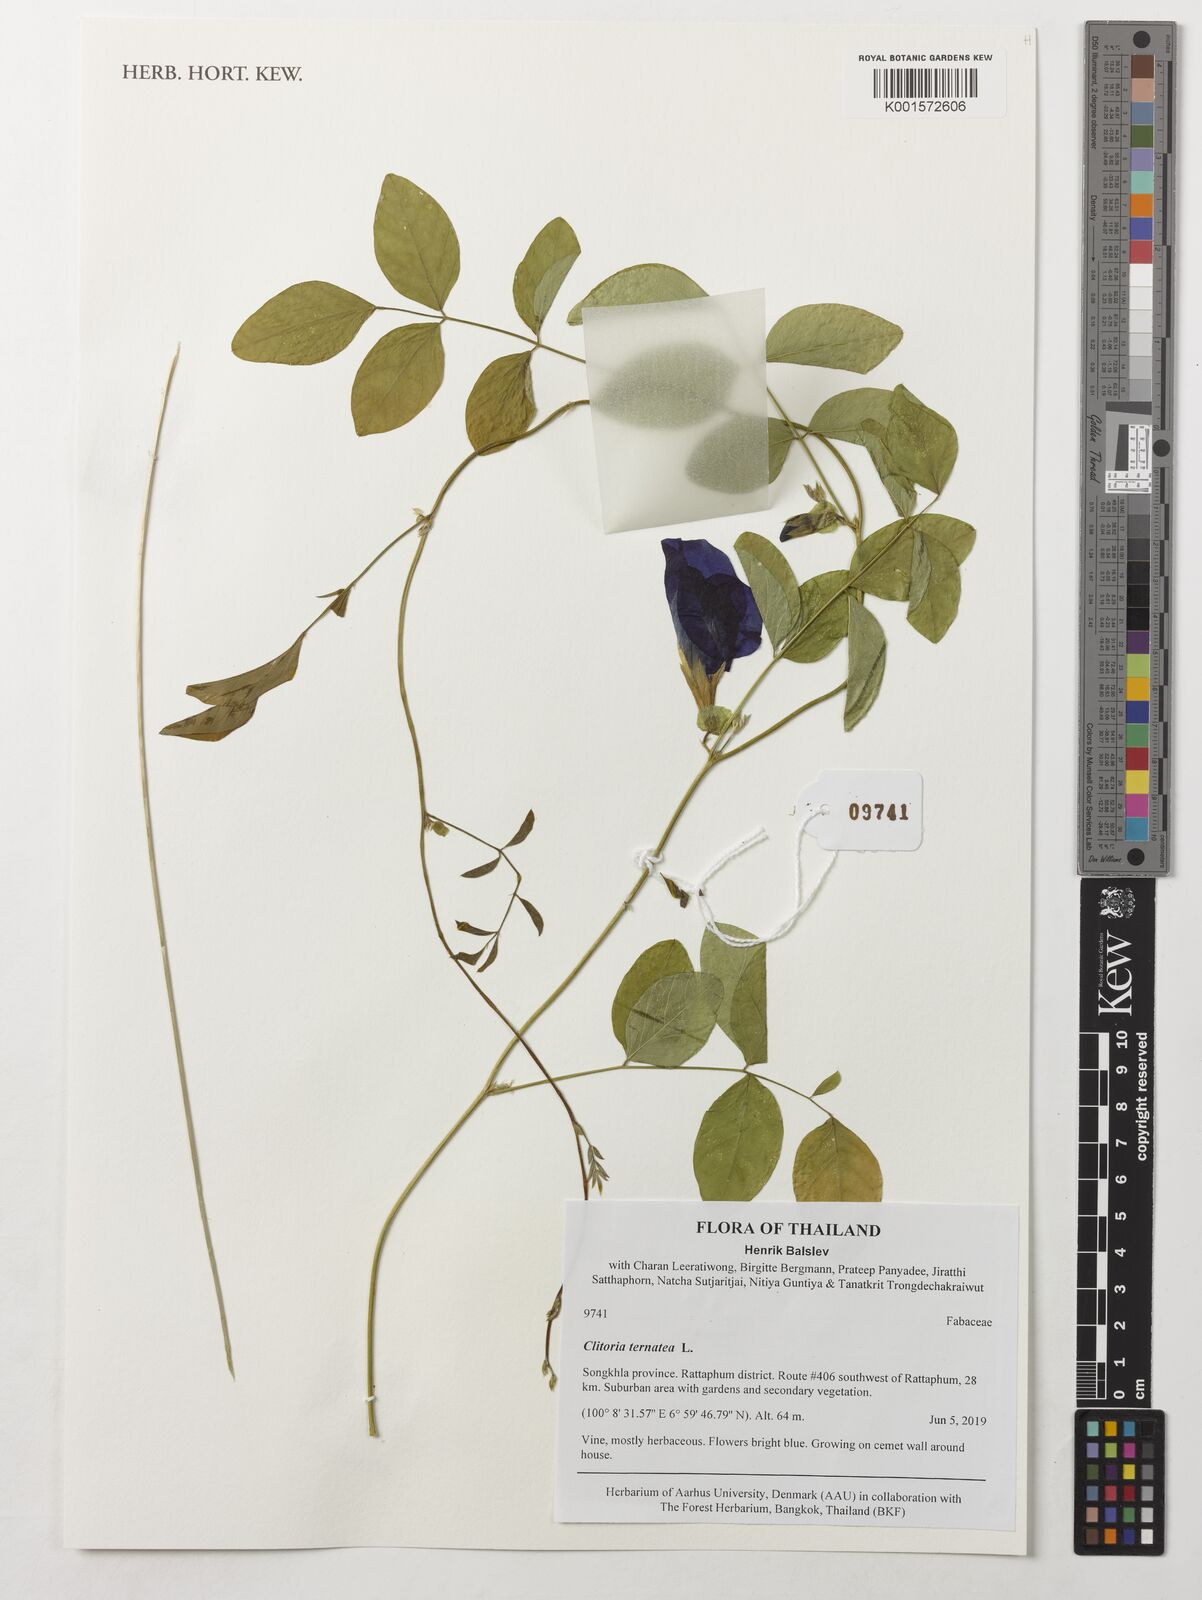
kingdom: Plantae
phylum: Tracheophyta
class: Magnoliopsida
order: Fabales
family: Fabaceae
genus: Clitoria
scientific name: Clitoria ternatea
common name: Asian pigeonwings
